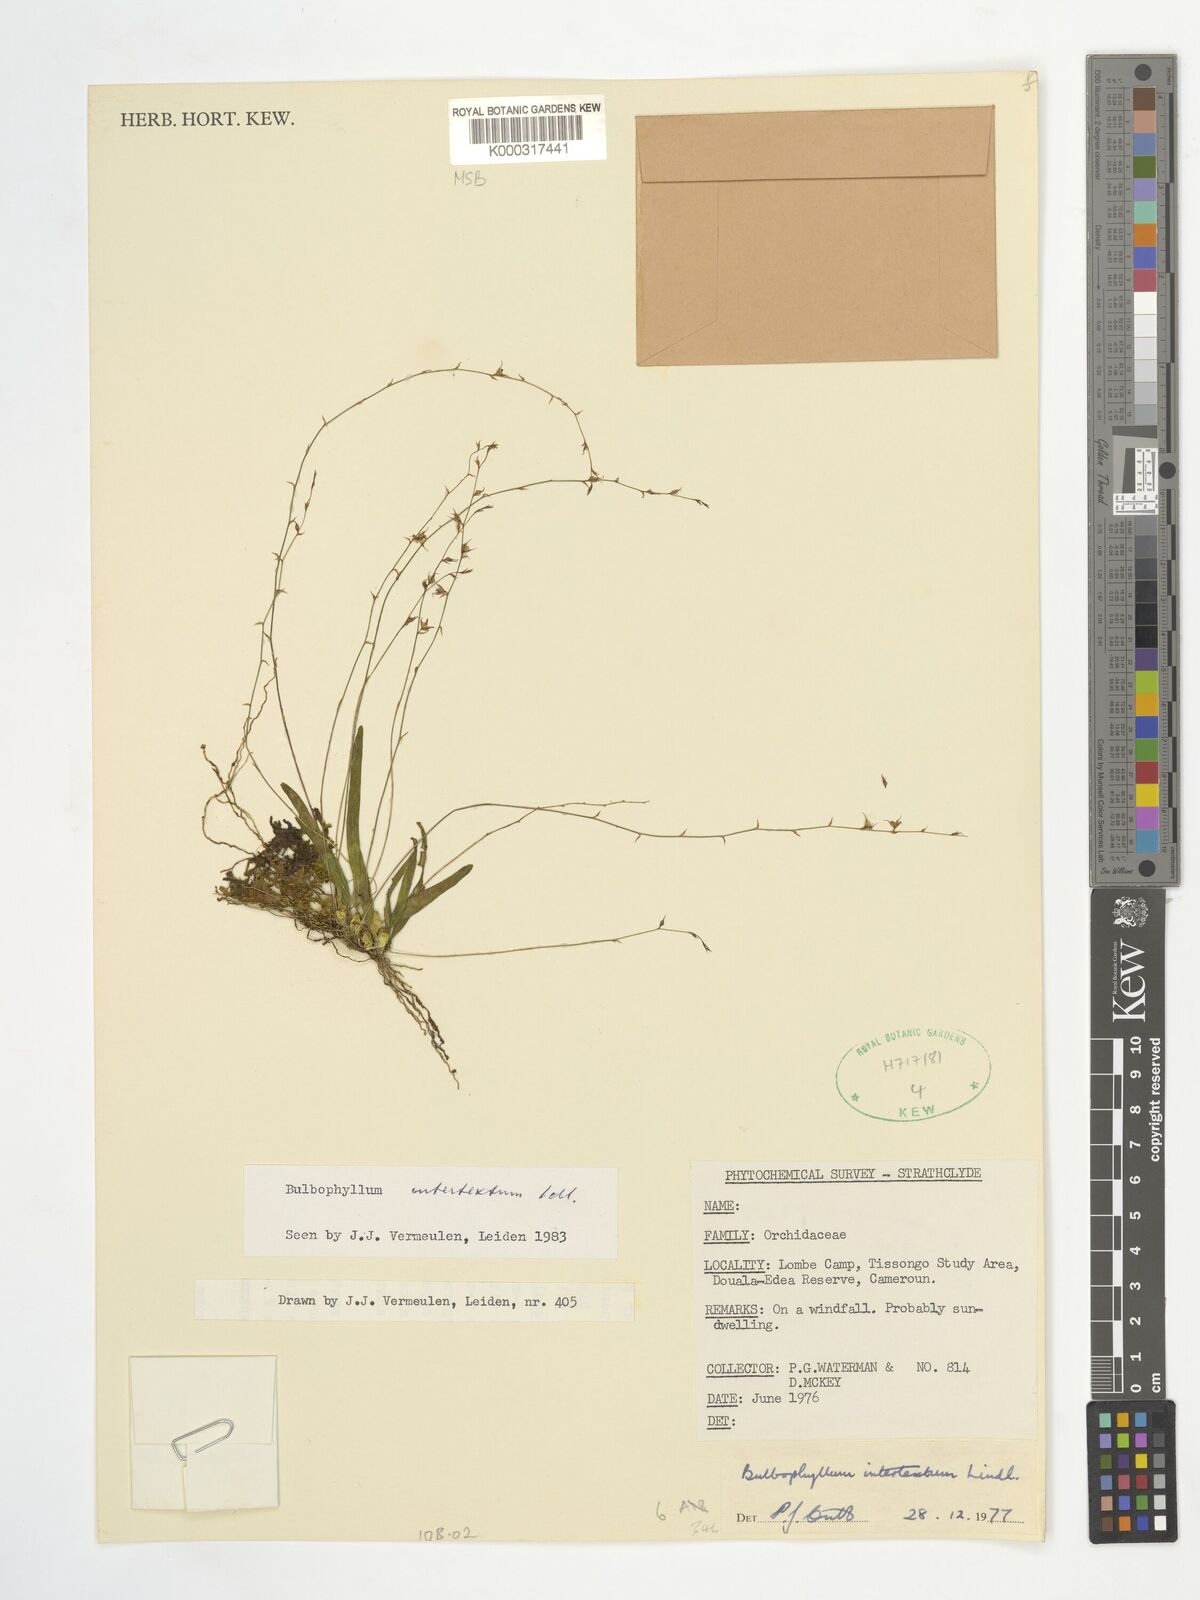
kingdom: Plantae
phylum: Tracheophyta
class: Liliopsida
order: Asparagales
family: Orchidaceae
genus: Bulbophyllum
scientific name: Bulbophyllum intertextum
